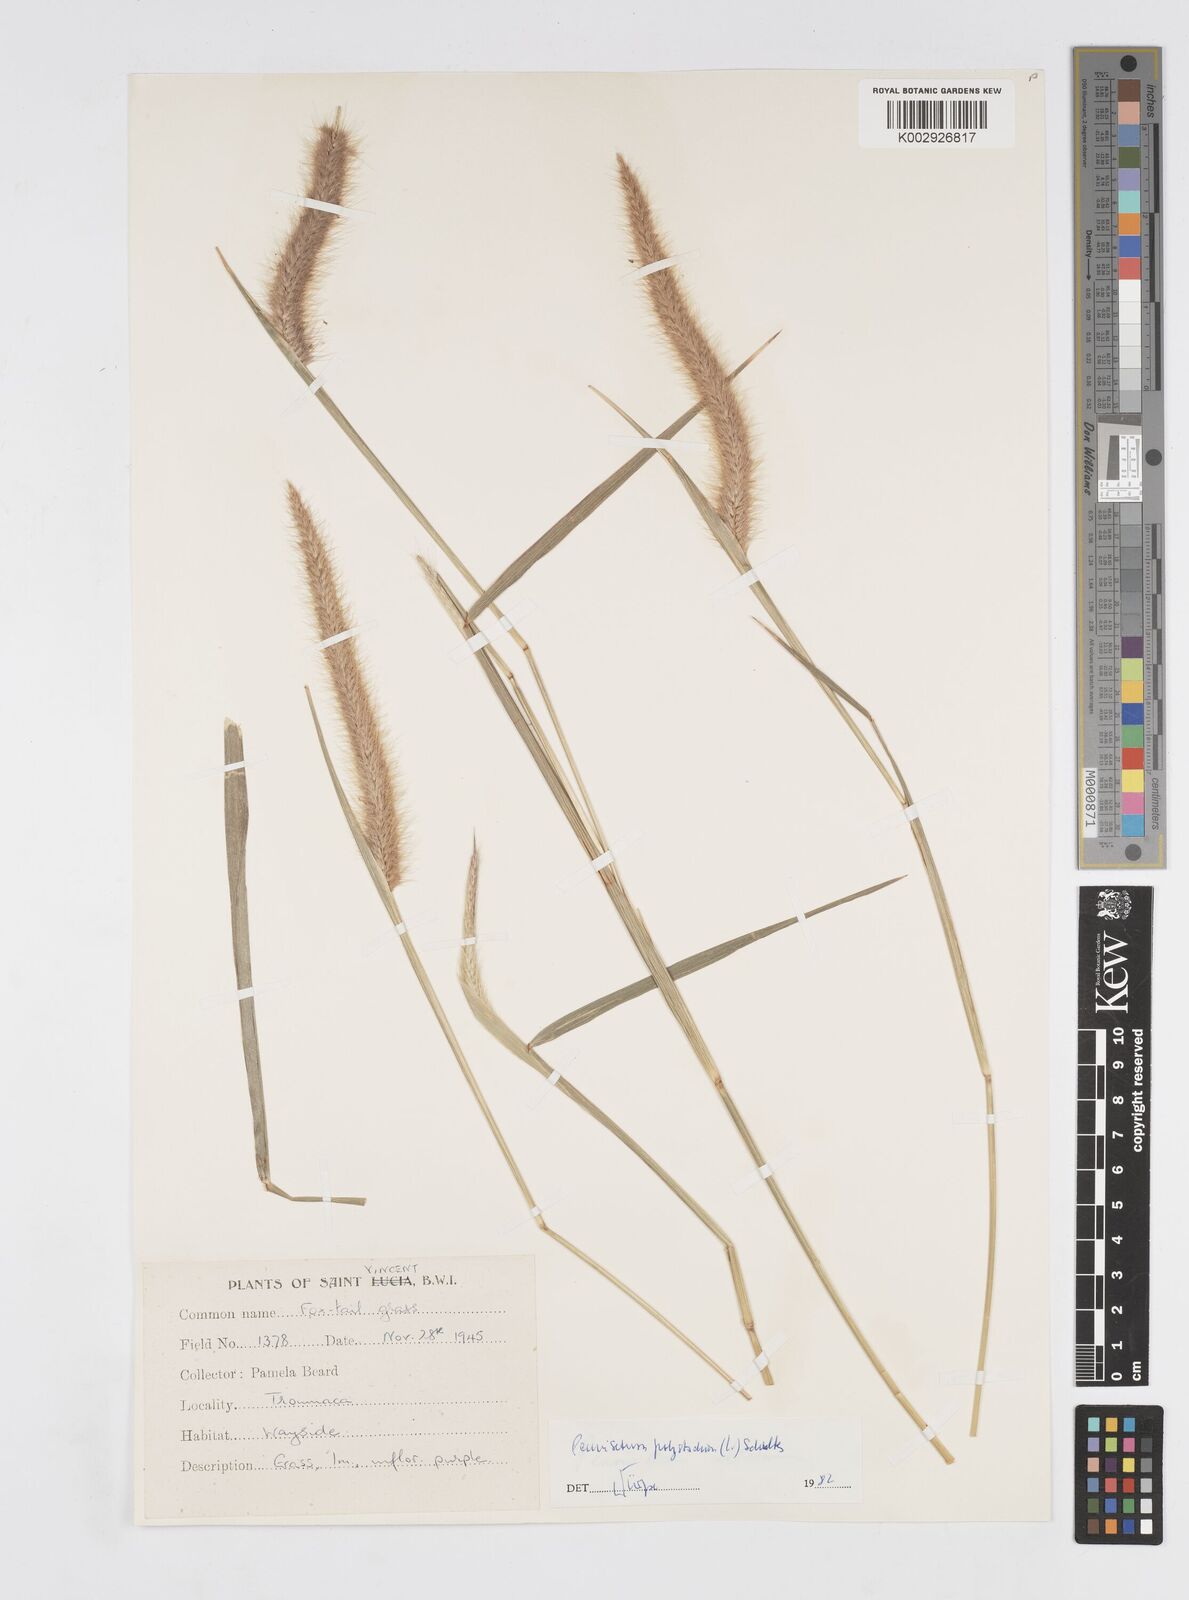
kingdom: Plantae
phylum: Tracheophyta
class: Liliopsida
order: Poales
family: Poaceae
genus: Cenchrus
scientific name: Cenchrus setosus
